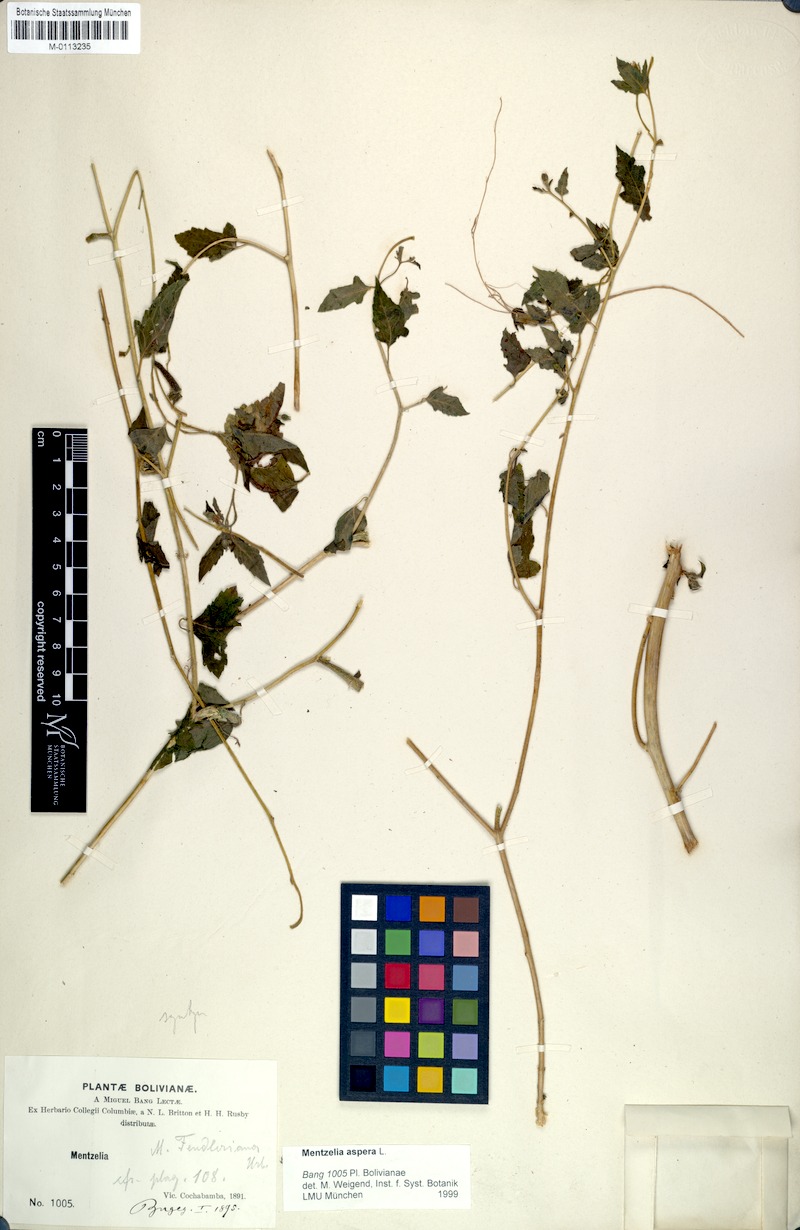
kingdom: Plantae
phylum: Tracheophyta
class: Magnoliopsida
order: Cornales
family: Loasaceae
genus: Mentzelia
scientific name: Mentzelia aspera
